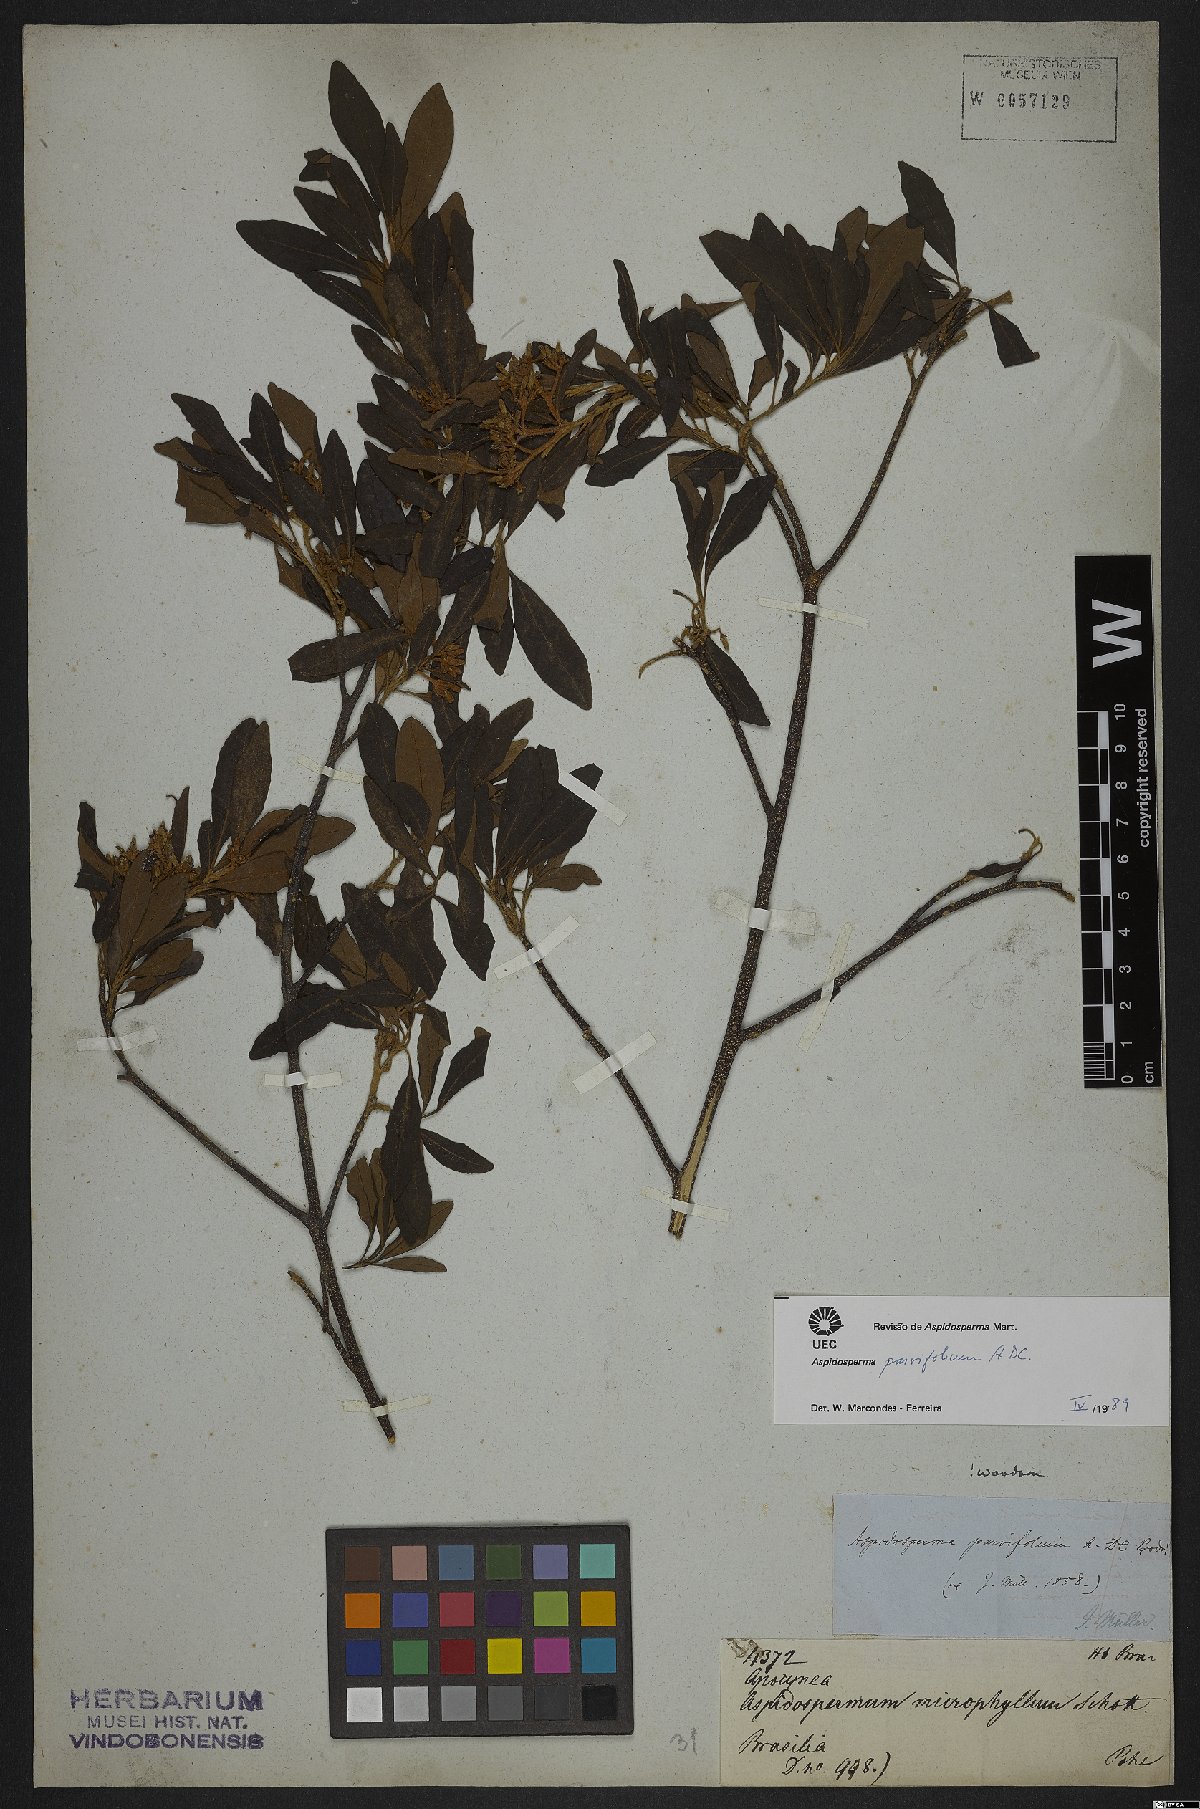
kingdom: Plantae
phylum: Tracheophyta
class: Magnoliopsida
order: Gentianales
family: Apocynaceae
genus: Aspidosperma
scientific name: Aspidosperma parvifolium
